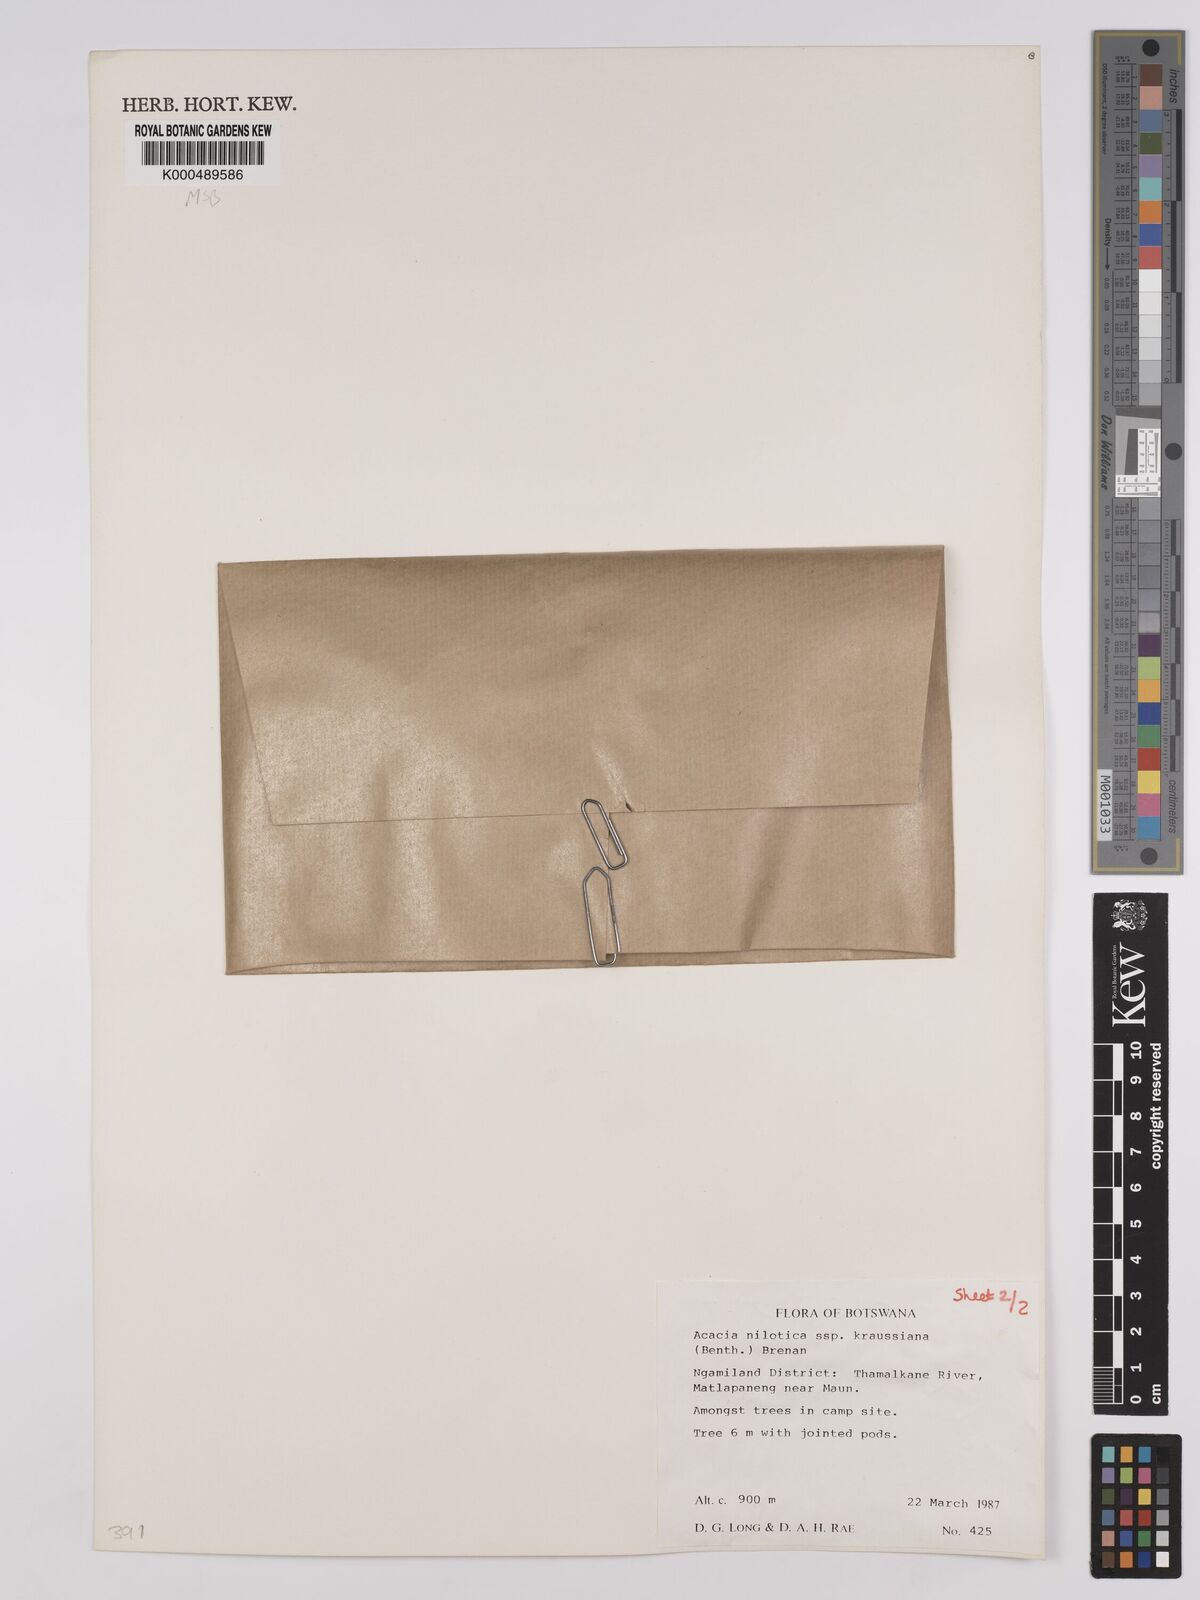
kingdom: Plantae
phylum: Tracheophyta
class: Magnoliopsida
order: Fabales
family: Fabaceae
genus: Vachellia
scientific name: Vachellia nilotica
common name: Arabic gumtree
